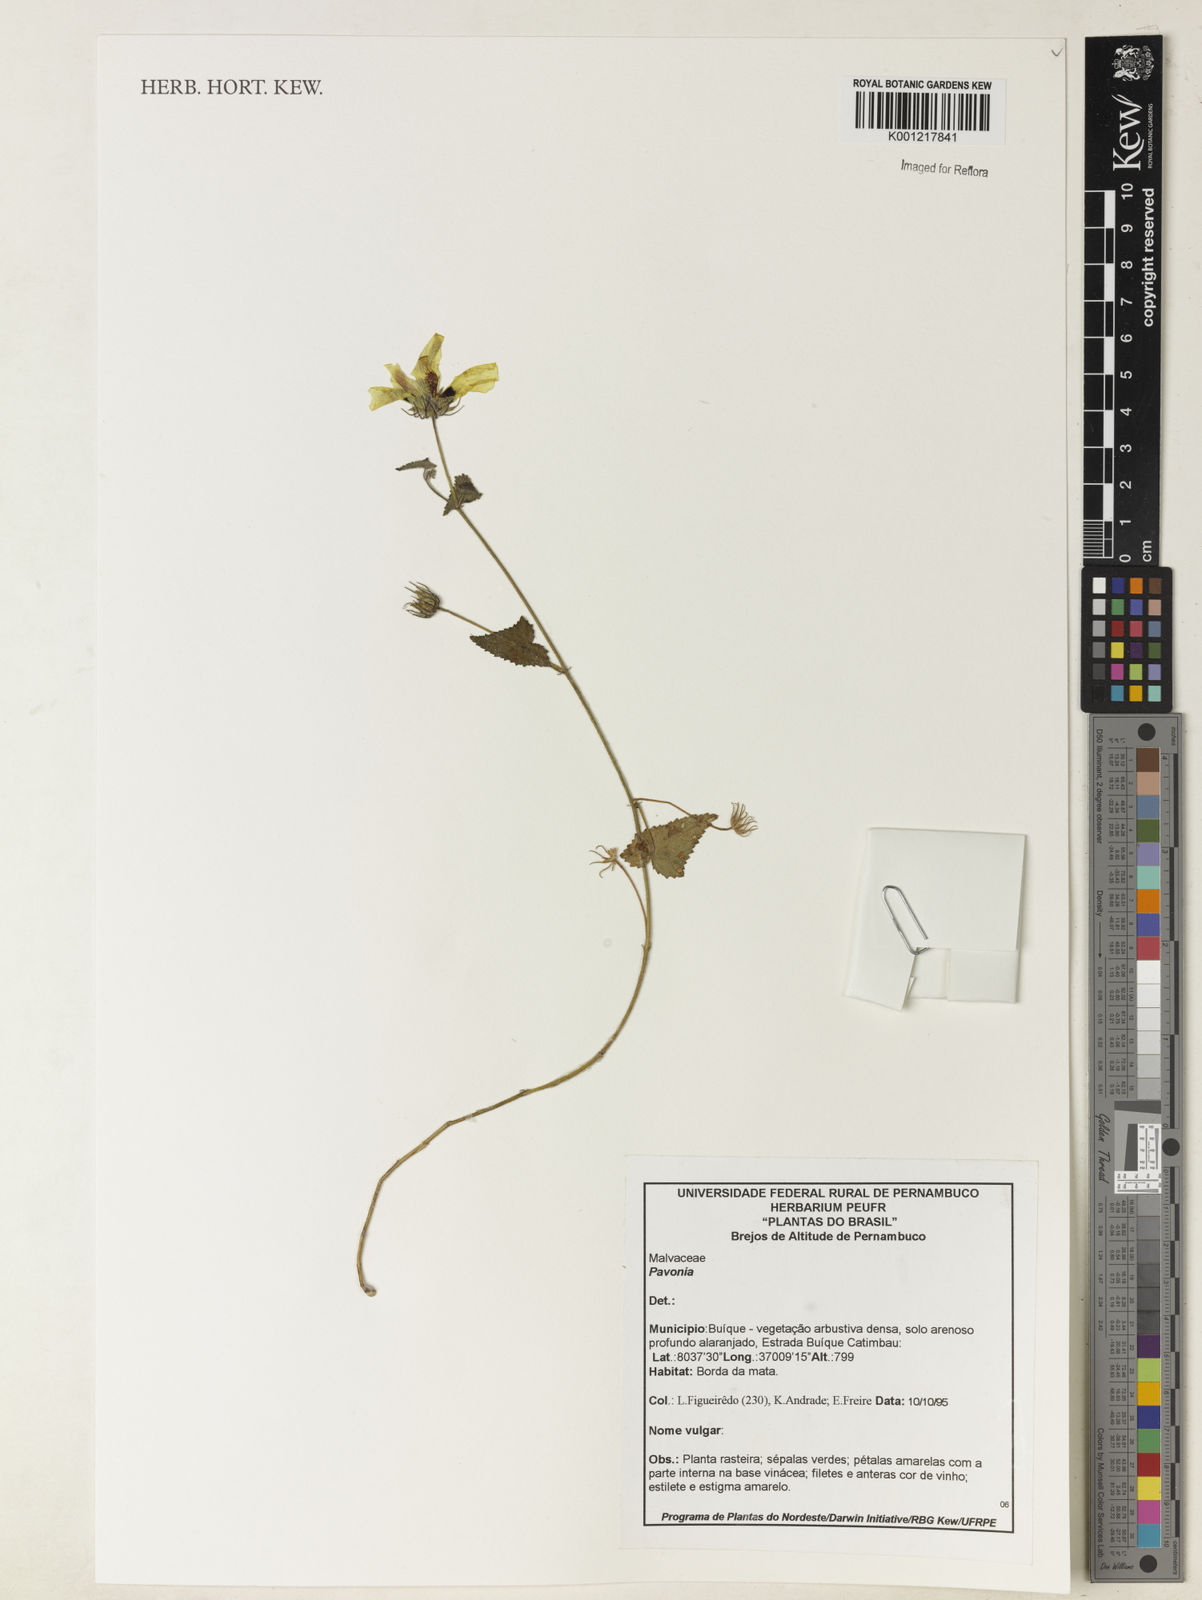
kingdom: Plantae
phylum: Tracheophyta
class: Magnoliopsida
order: Malvales
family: Malvaceae
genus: Pavonia
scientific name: Pavonia
